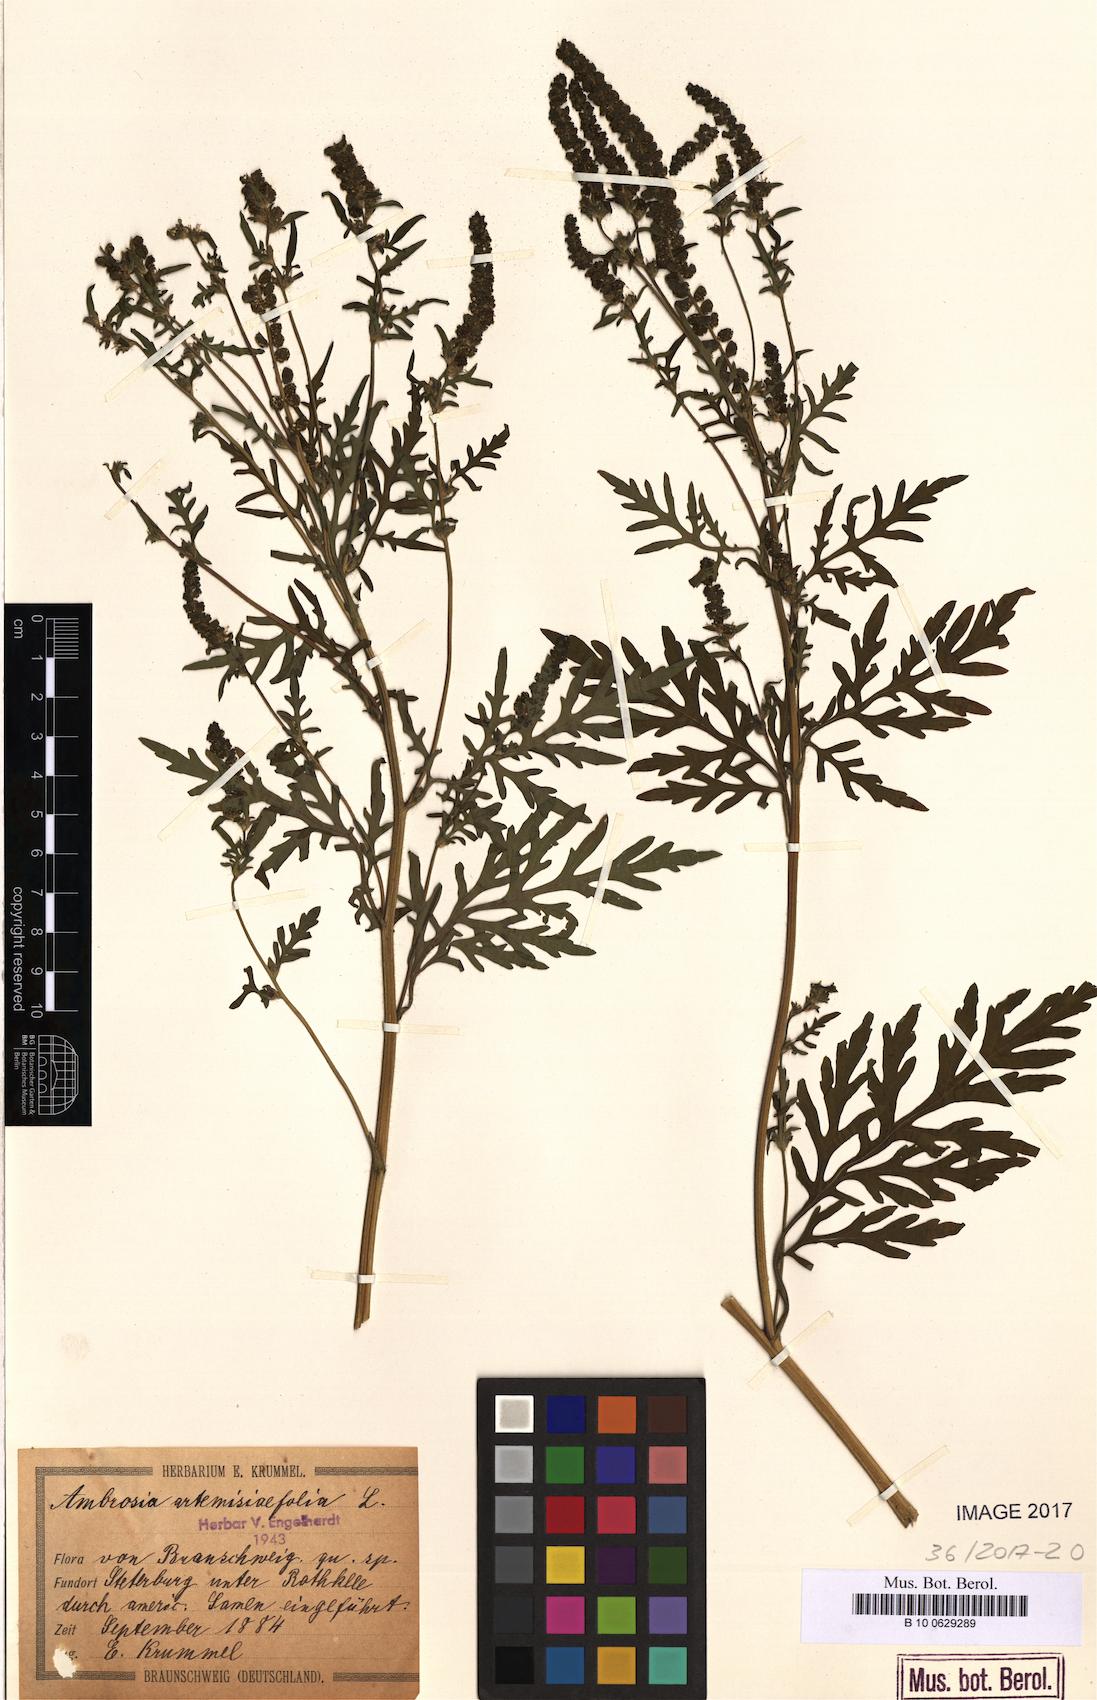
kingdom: Plantae
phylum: Tracheophyta
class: Magnoliopsida
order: Asterales
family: Asteraceae
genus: Ambrosia
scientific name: Ambrosia artemisiifolia
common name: Annual ragweed
